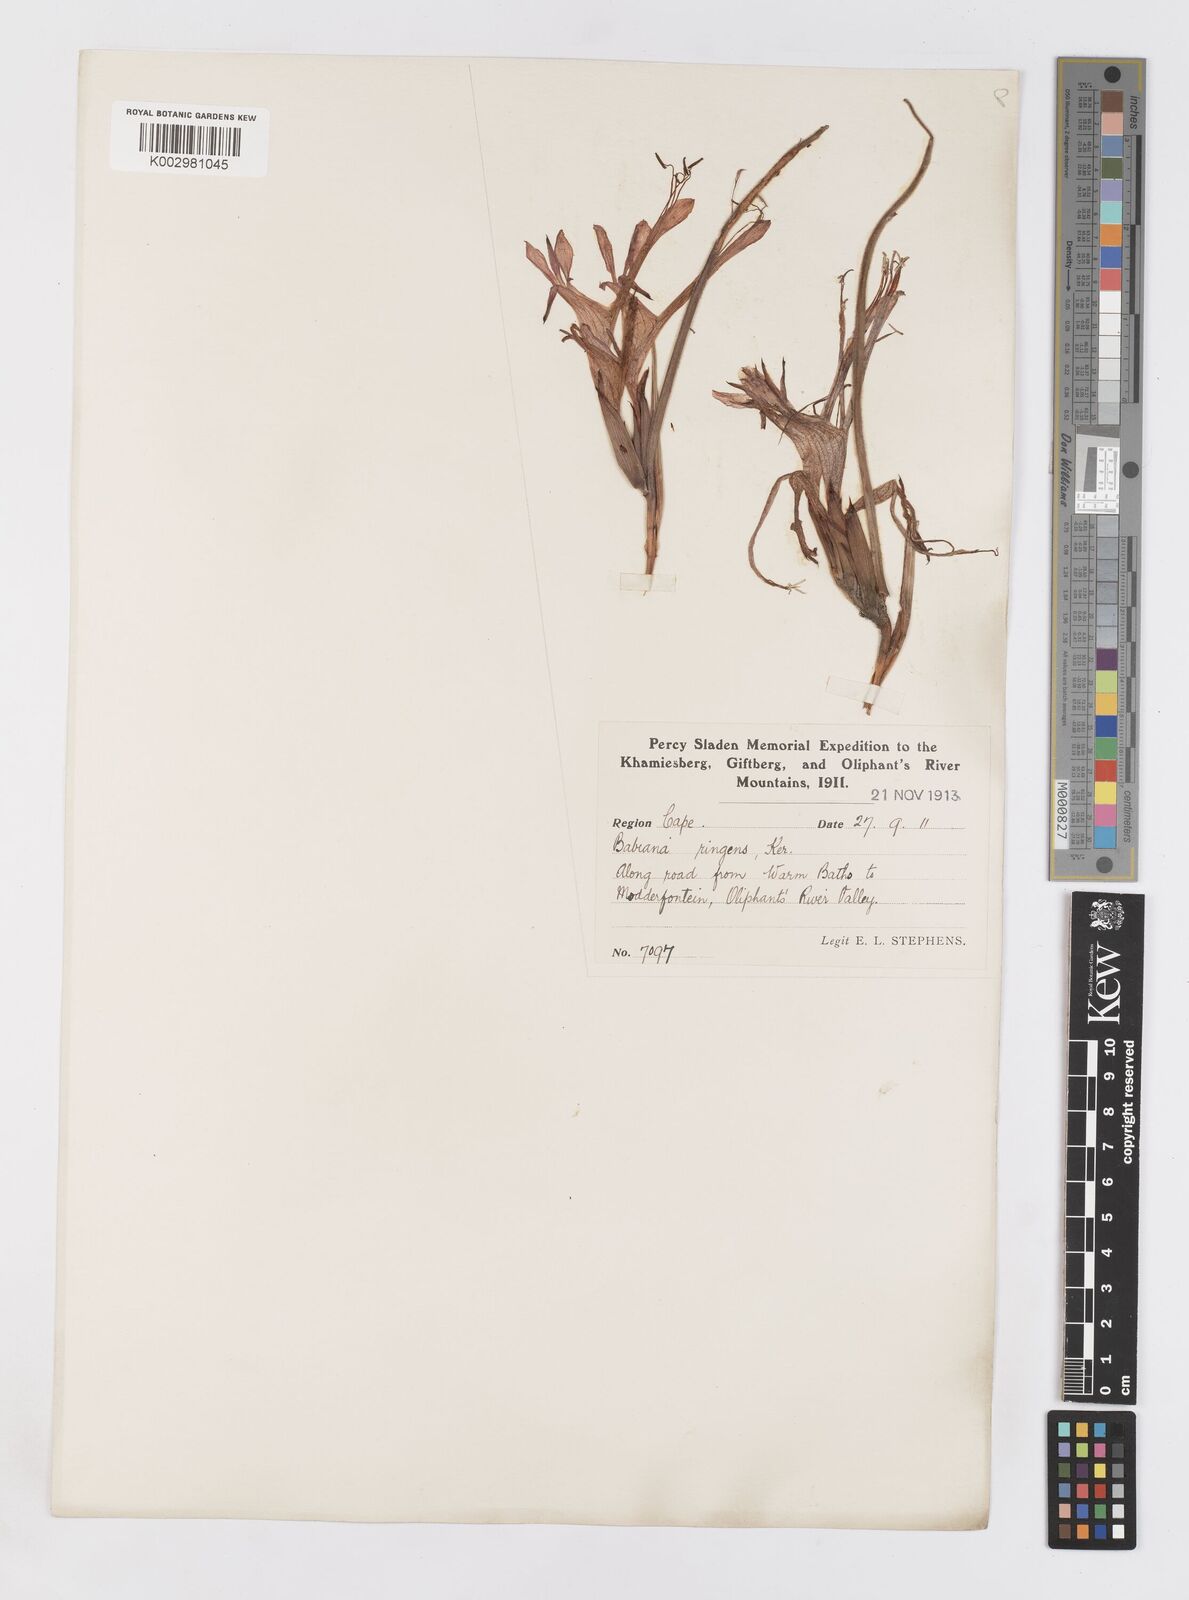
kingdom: Plantae
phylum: Tracheophyta
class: Liliopsida
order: Asparagales
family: Iridaceae
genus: Babiana
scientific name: Babiana ringens
